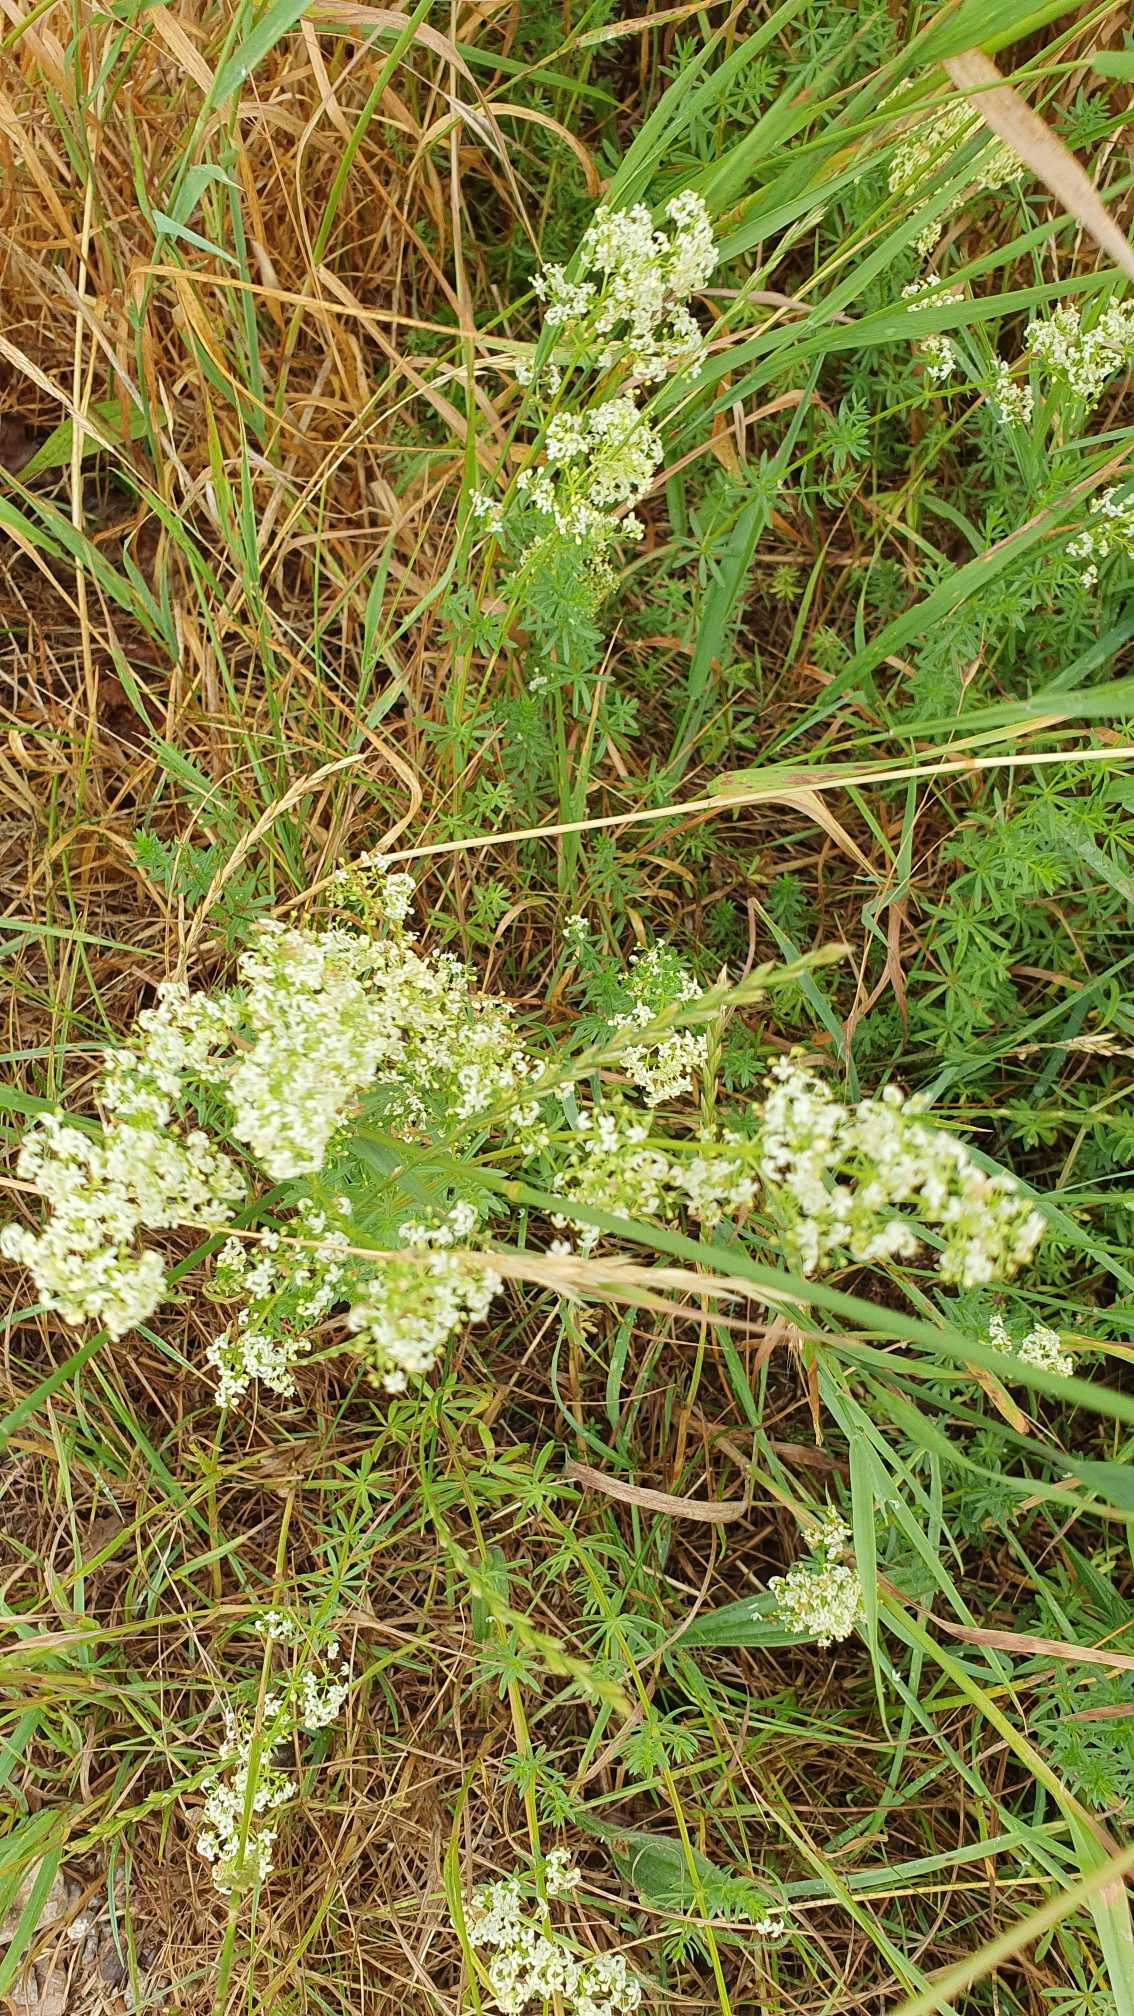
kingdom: Plantae
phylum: Tracheophyta
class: Magnoliopsida
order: Gentianales
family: Rubiaceae
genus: Galium
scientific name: Galium mollugo
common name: Hvid snerre
